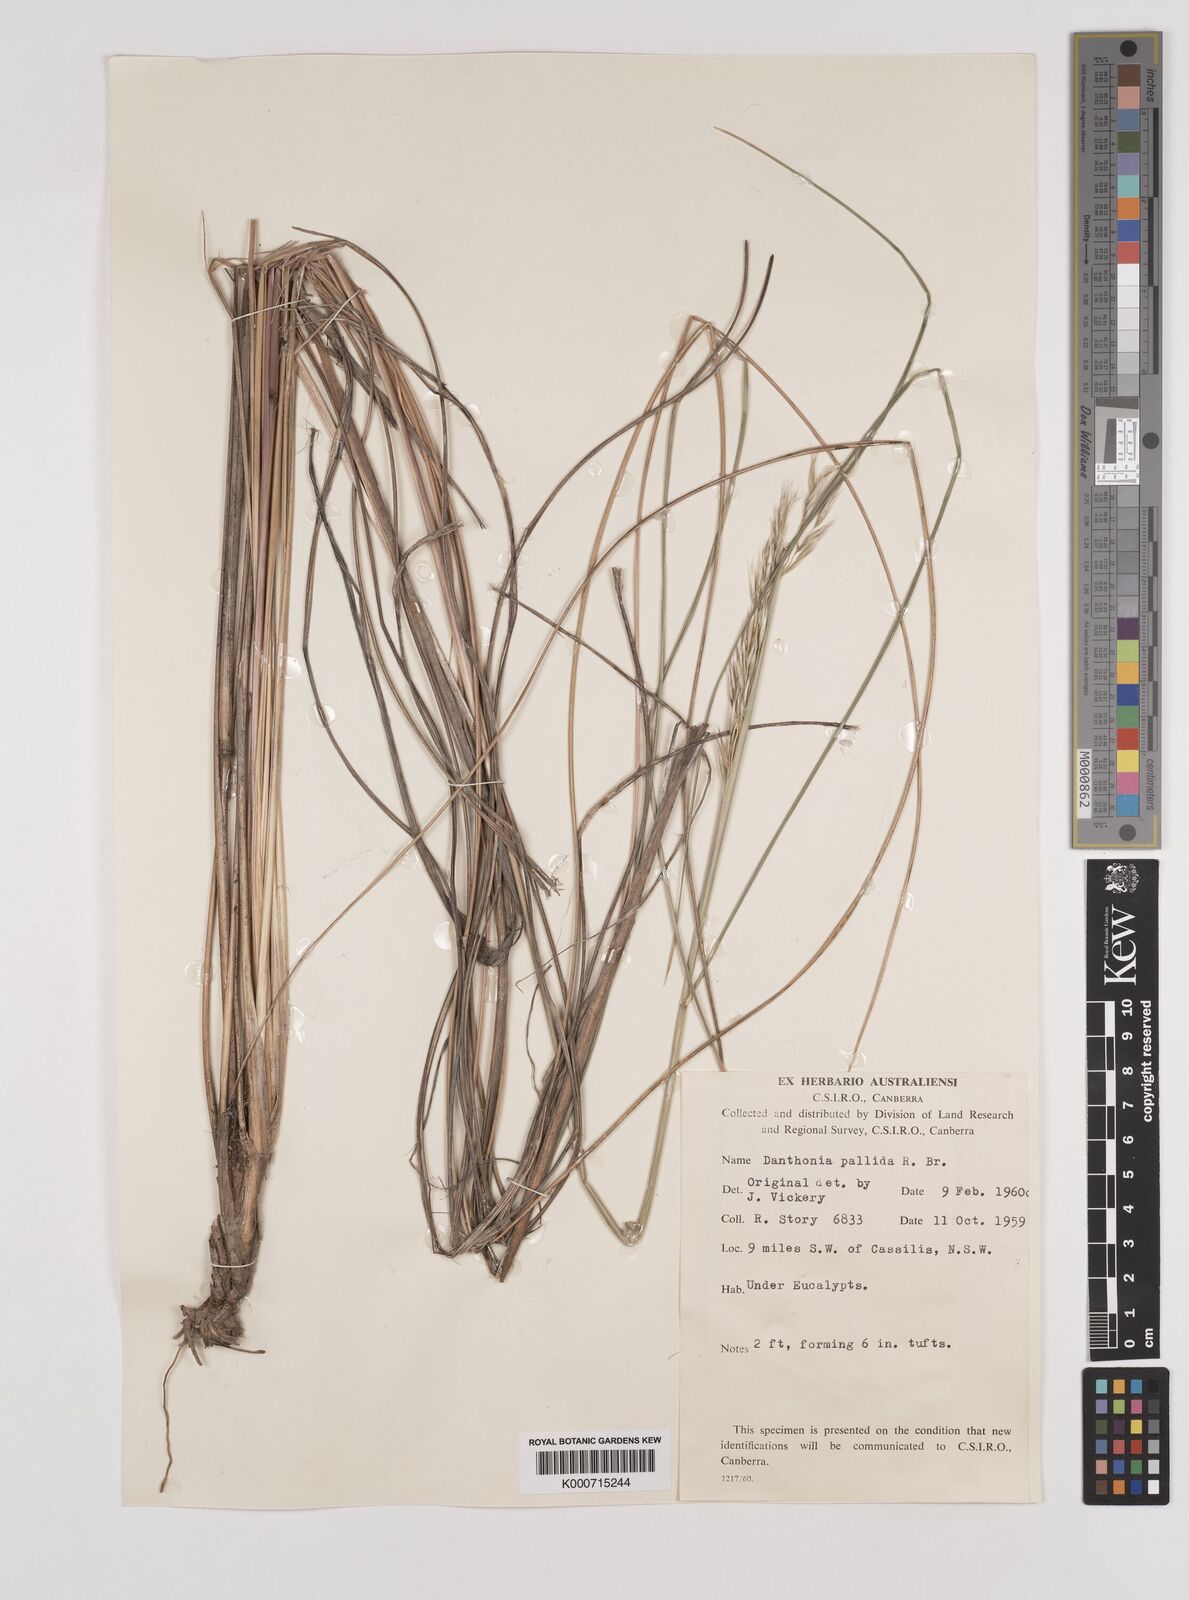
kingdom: Plantae
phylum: Tracheophyta
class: Liliopsida
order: Poales
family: Poaceae
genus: Rytidosperma
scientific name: Rytidosperma
